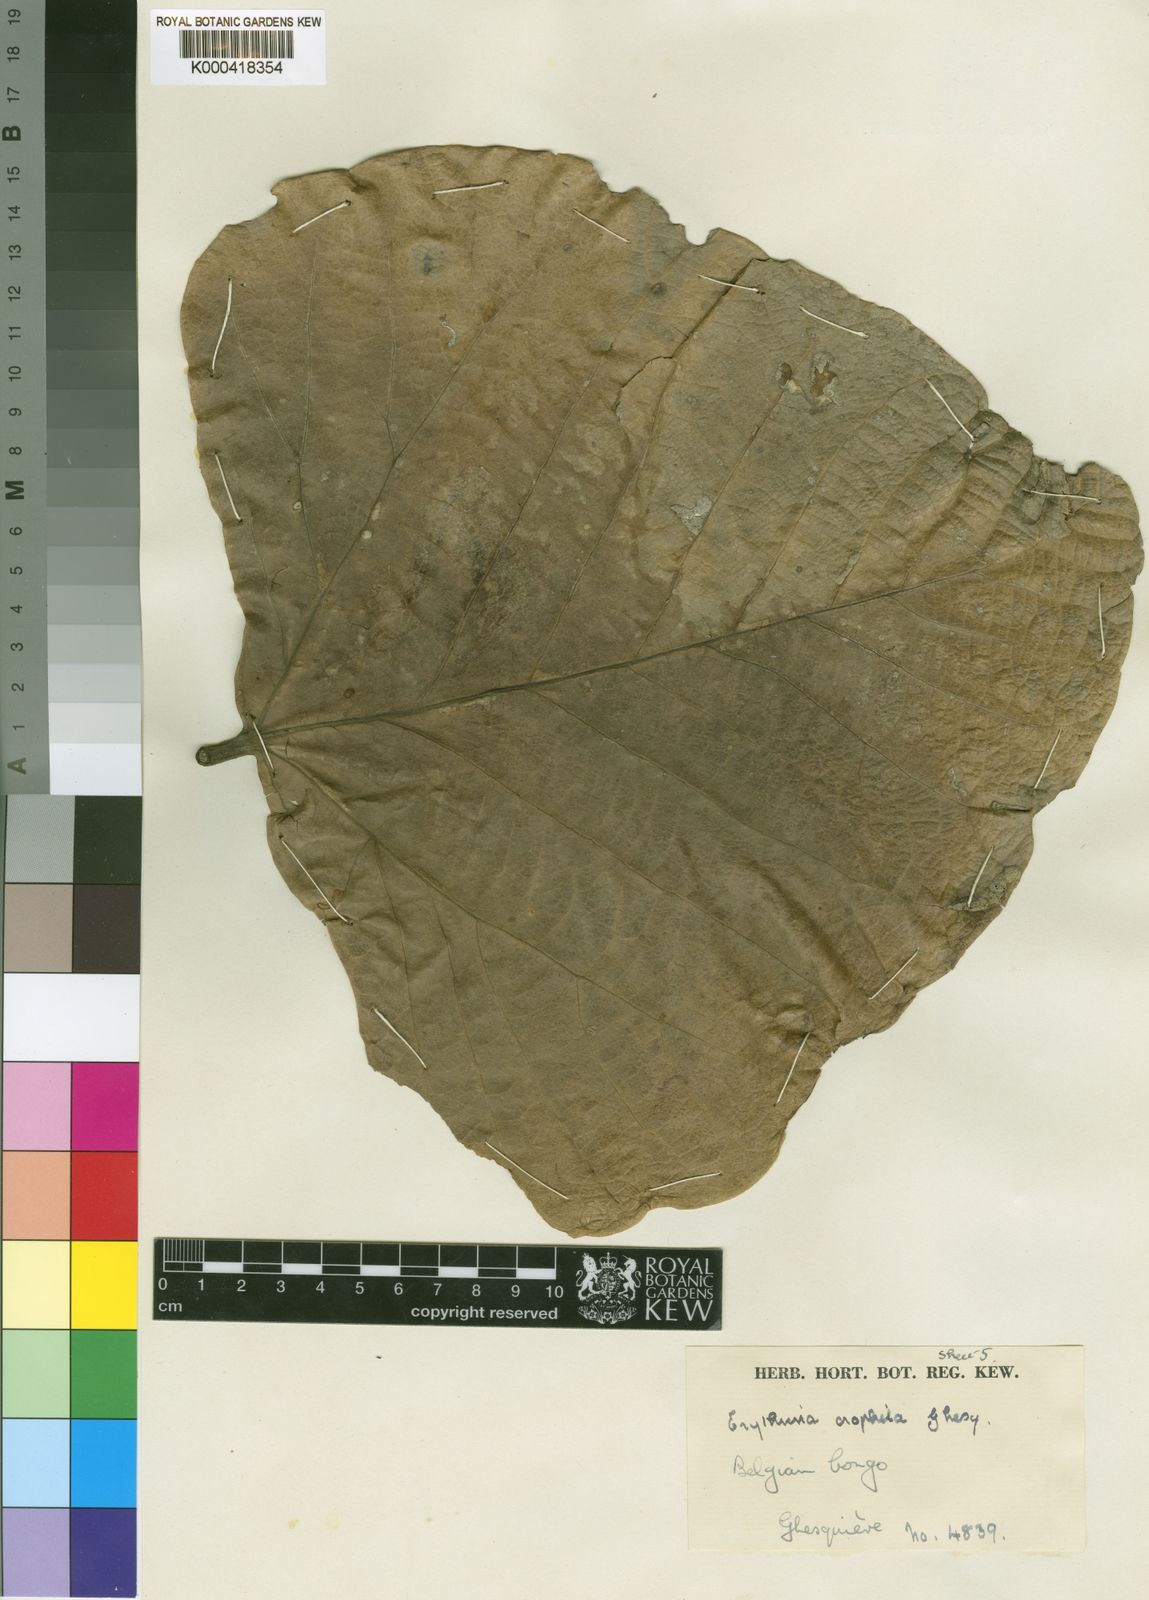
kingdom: Plantae
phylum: Tracheophyta
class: Magnoliopsida
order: Fabales
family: Fabaceae
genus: Erythrina
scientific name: Erythrina orophila
